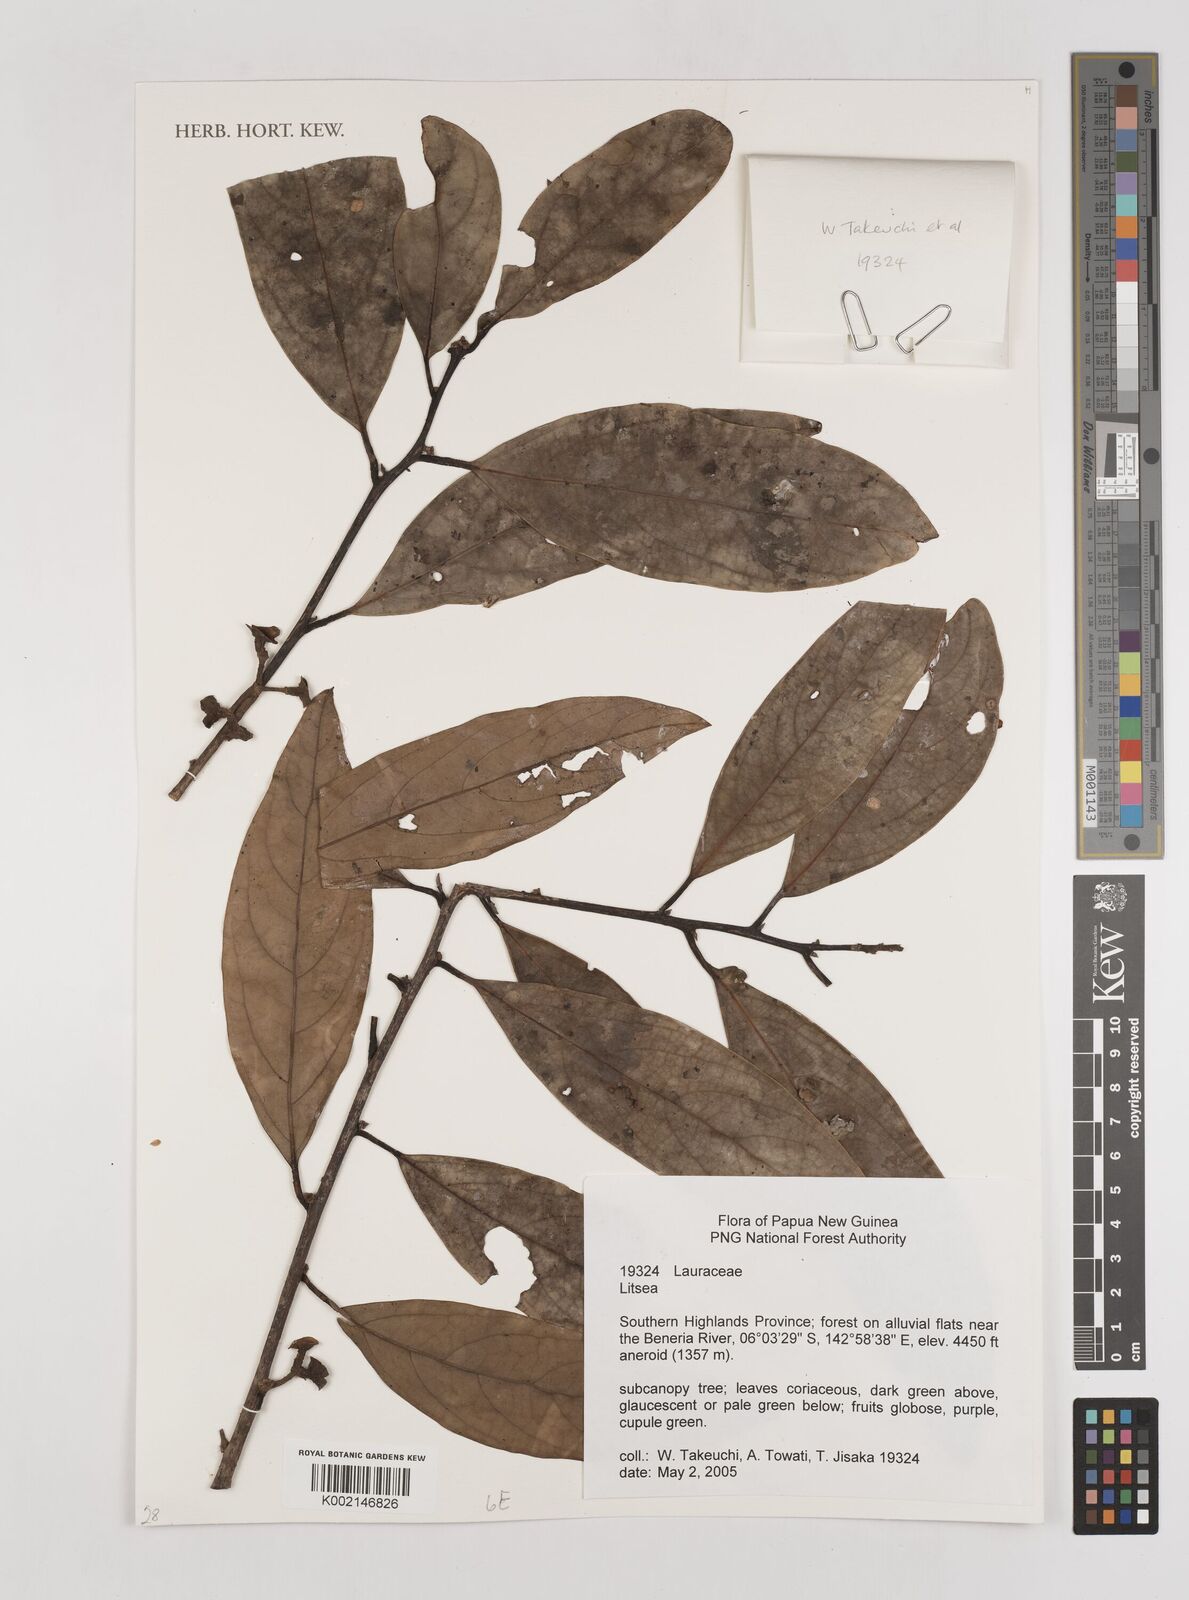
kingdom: Plantae
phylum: Tracheophyta
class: Magnoliopsida
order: Laurales
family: Lauraceae
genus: Litsea
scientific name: Litsea
